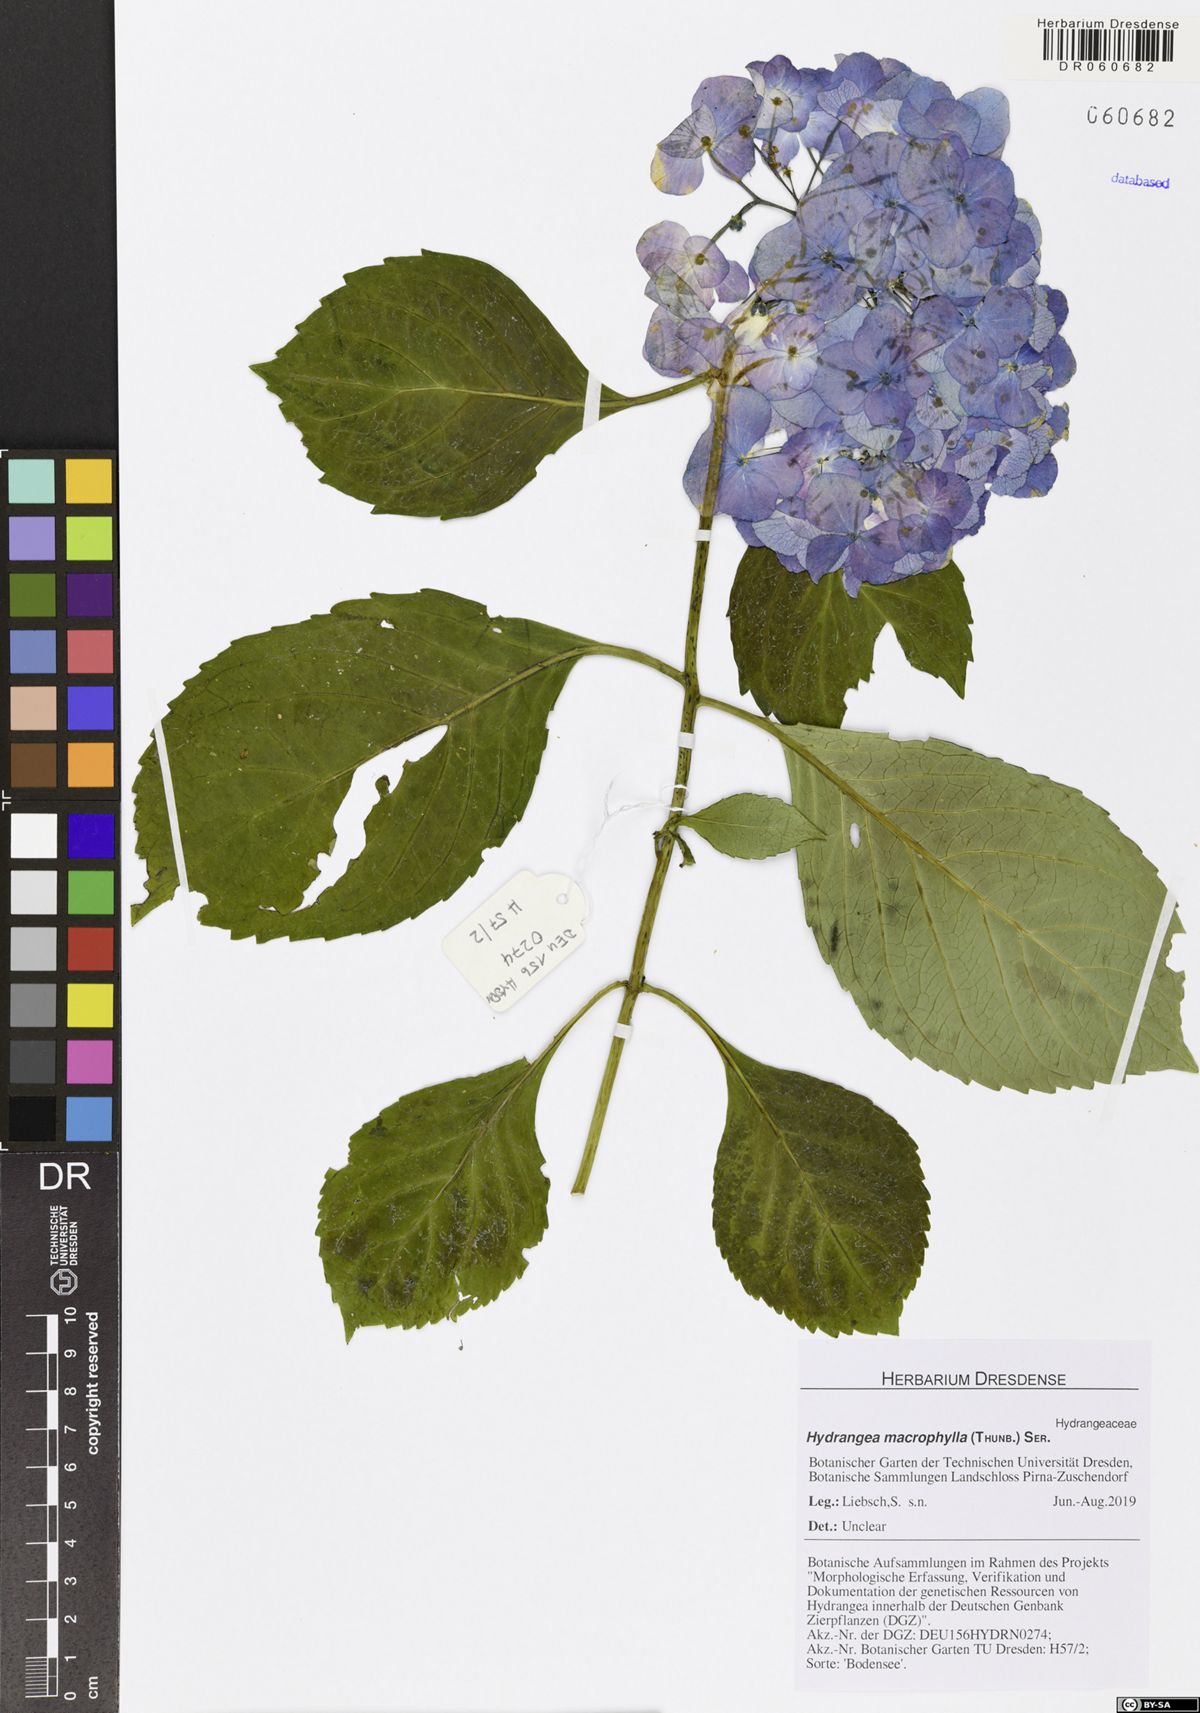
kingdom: Plantae
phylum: Tracheophyta
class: Magnoliopsida
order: Cornales
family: Hydrangeaceae
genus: Hydrangea
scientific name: Hydrangea macrophylla
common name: Hydrangea
